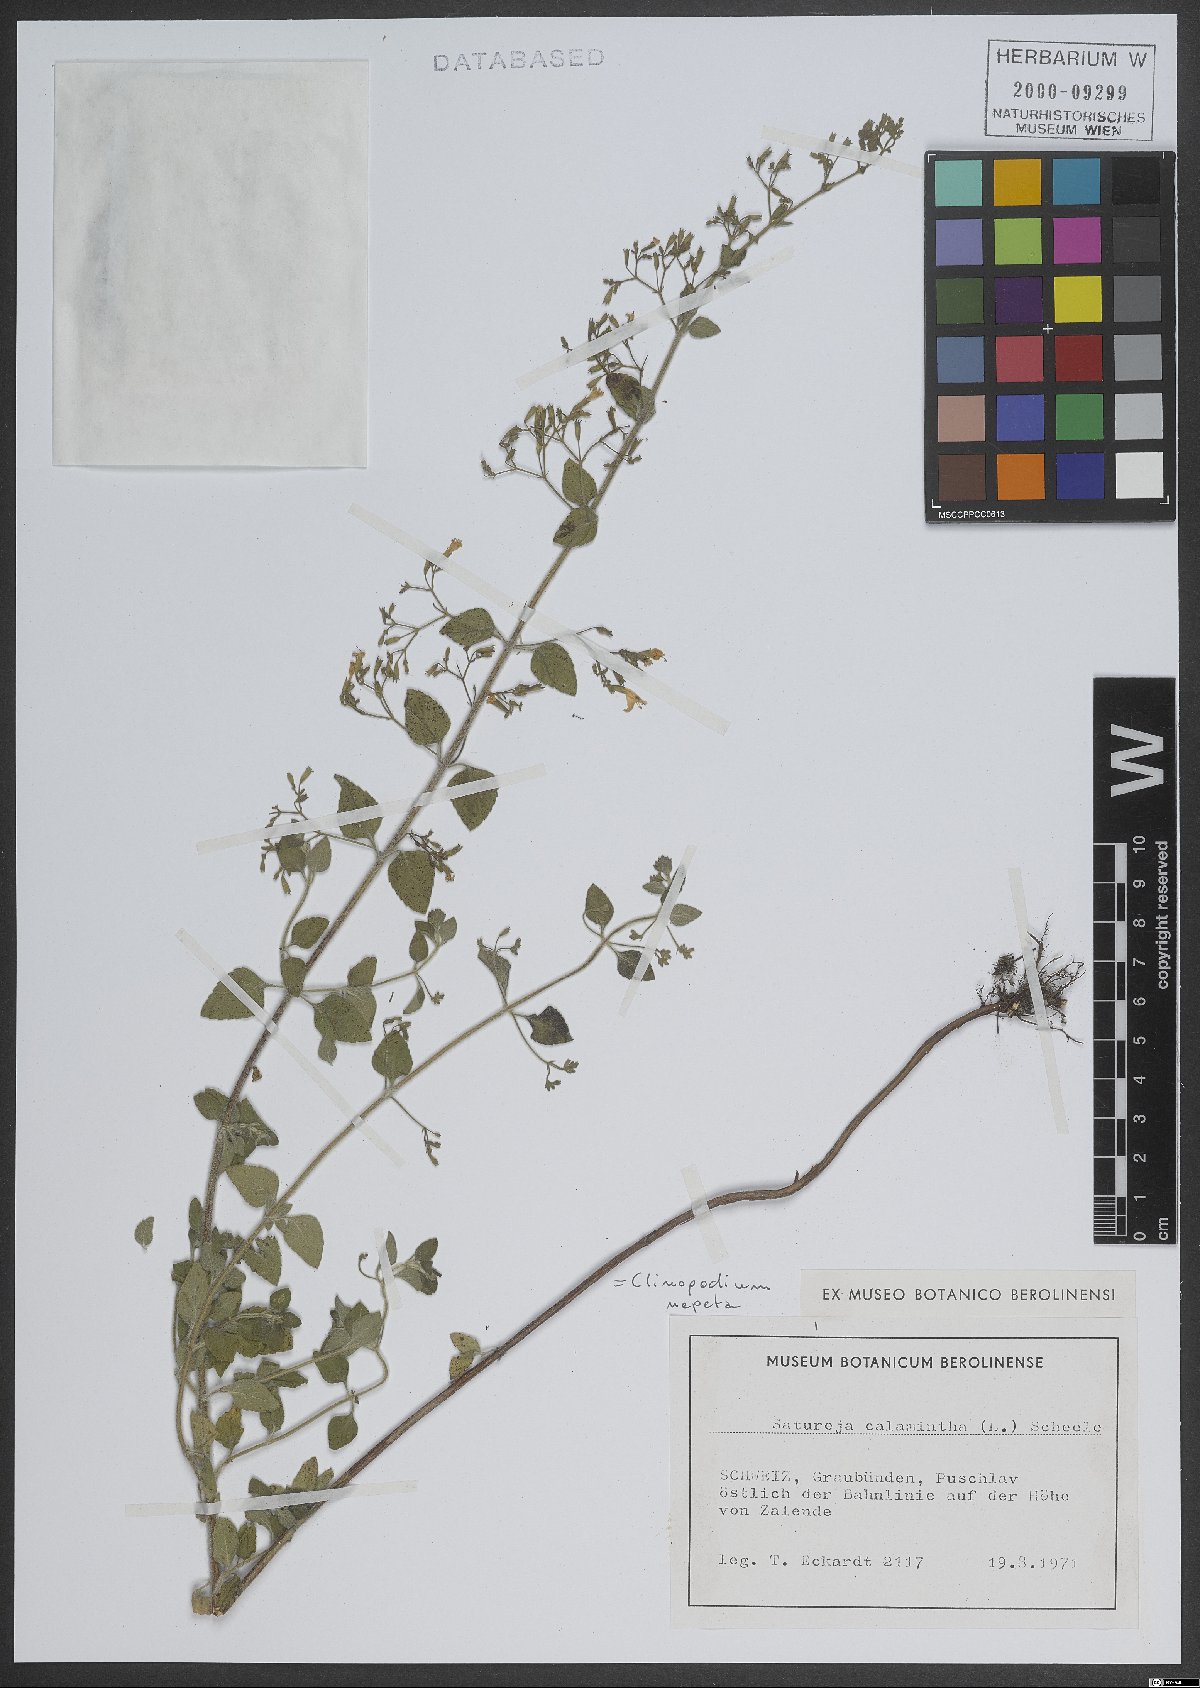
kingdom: Plantae
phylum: Tracheophyta
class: Magnoliopsida
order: Lamiales
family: Lamiaceae
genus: Clinopodium
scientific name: Clinopodium nepeta
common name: Lesser calamint
